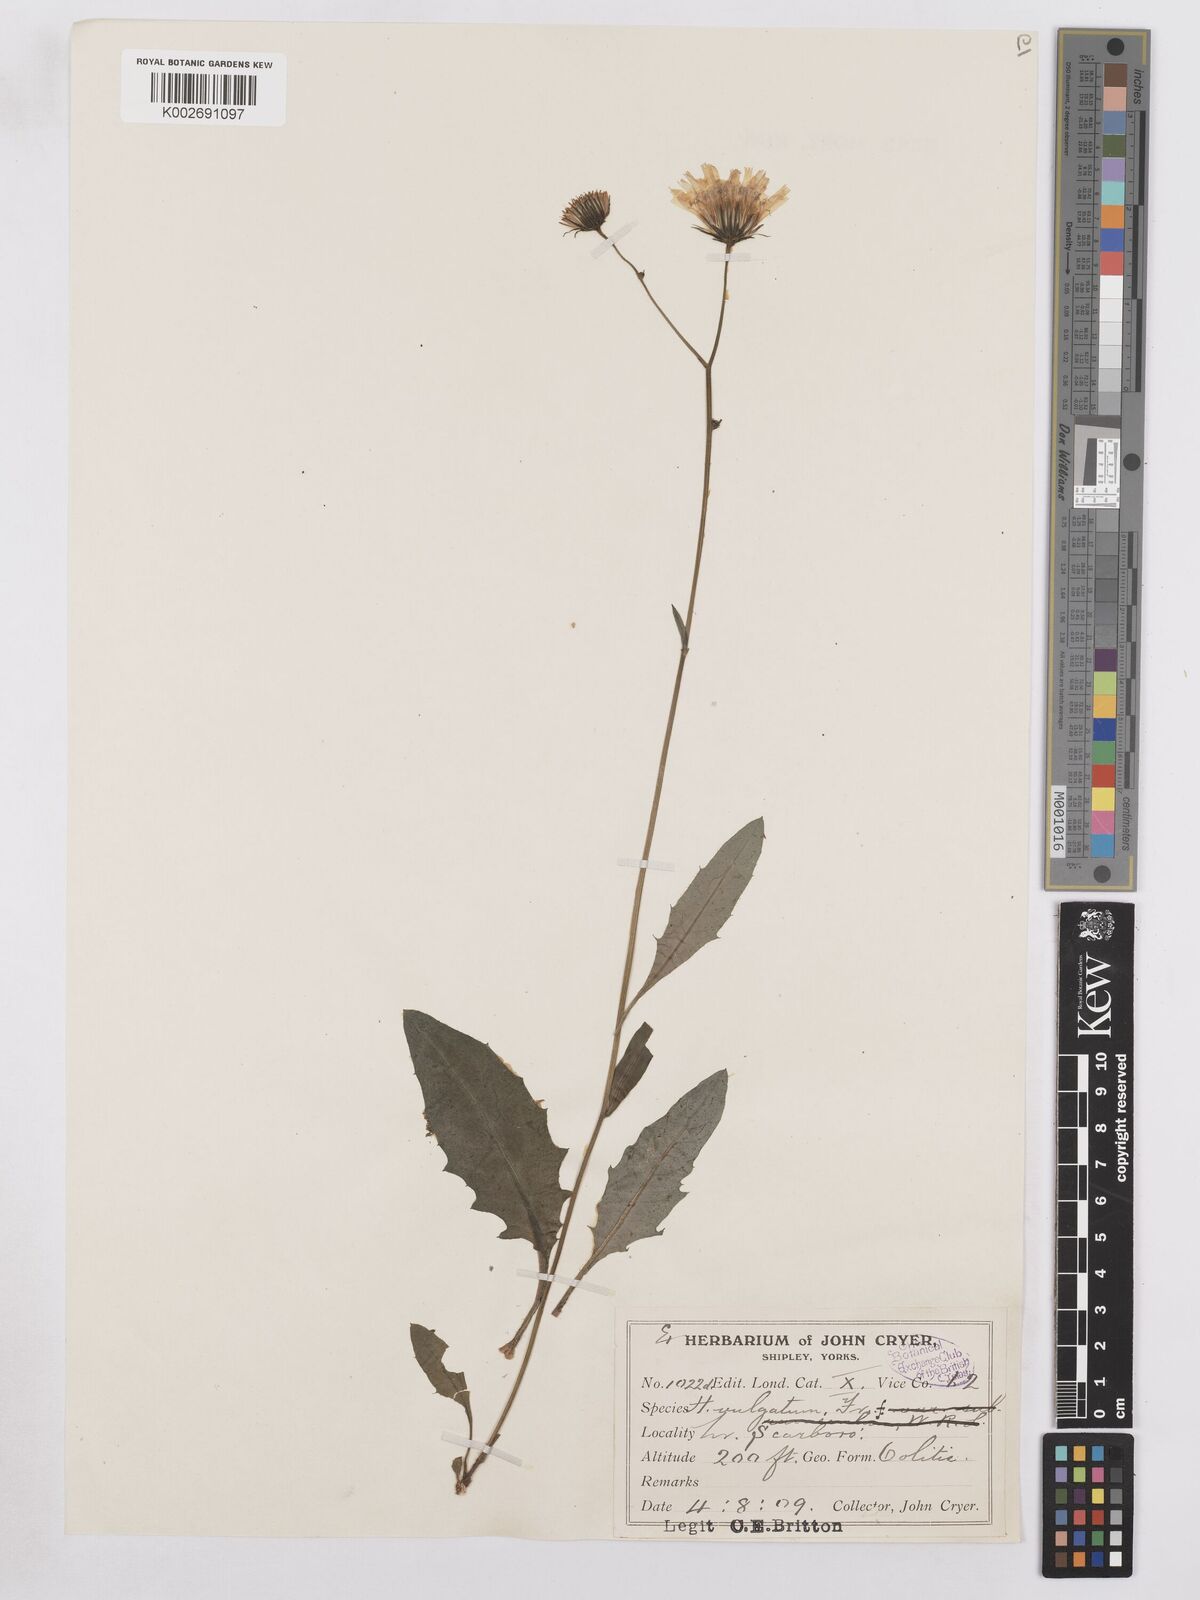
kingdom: Plantae
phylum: Tracheophyta
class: Magnoliopsida
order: Asterales
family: Asteraceae
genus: Hieracium
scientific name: Hieracium lachenalii
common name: Common hawkweed
